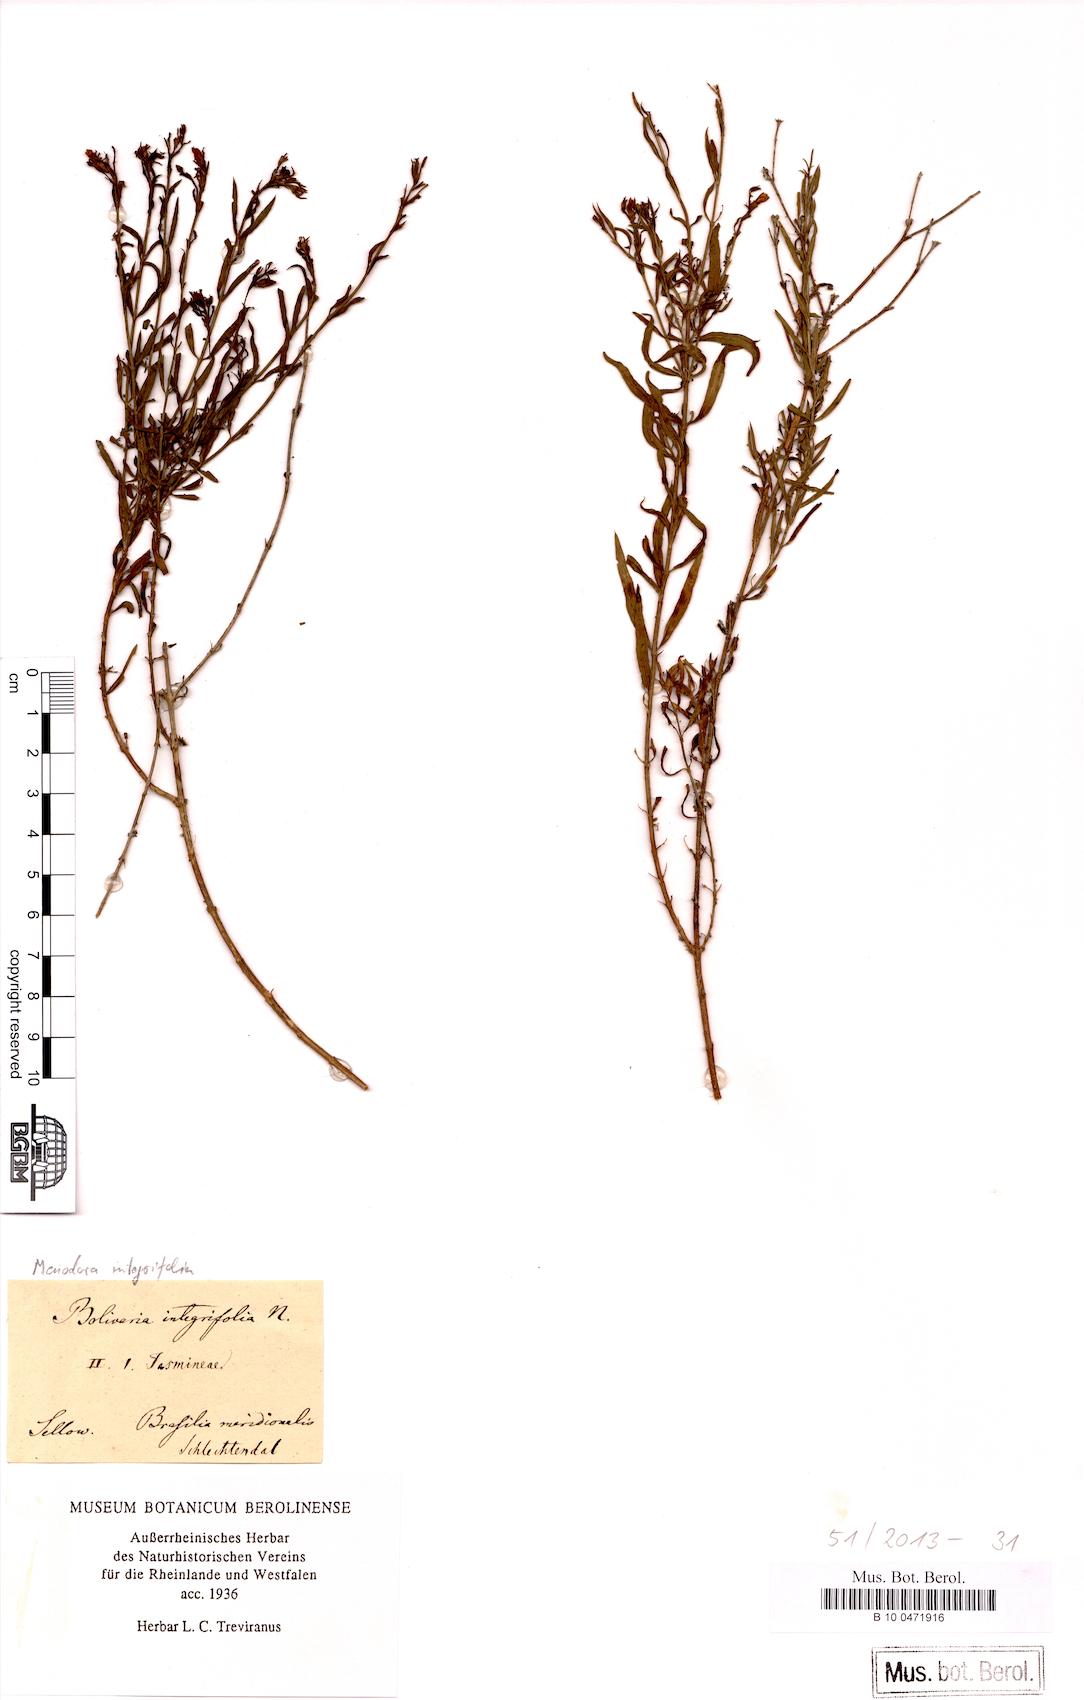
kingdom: Plantae
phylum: Tracheophyta
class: Magnoliopsida
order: Lamiales
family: Oleaceae
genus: Menodora
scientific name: Menodora integrifolia
